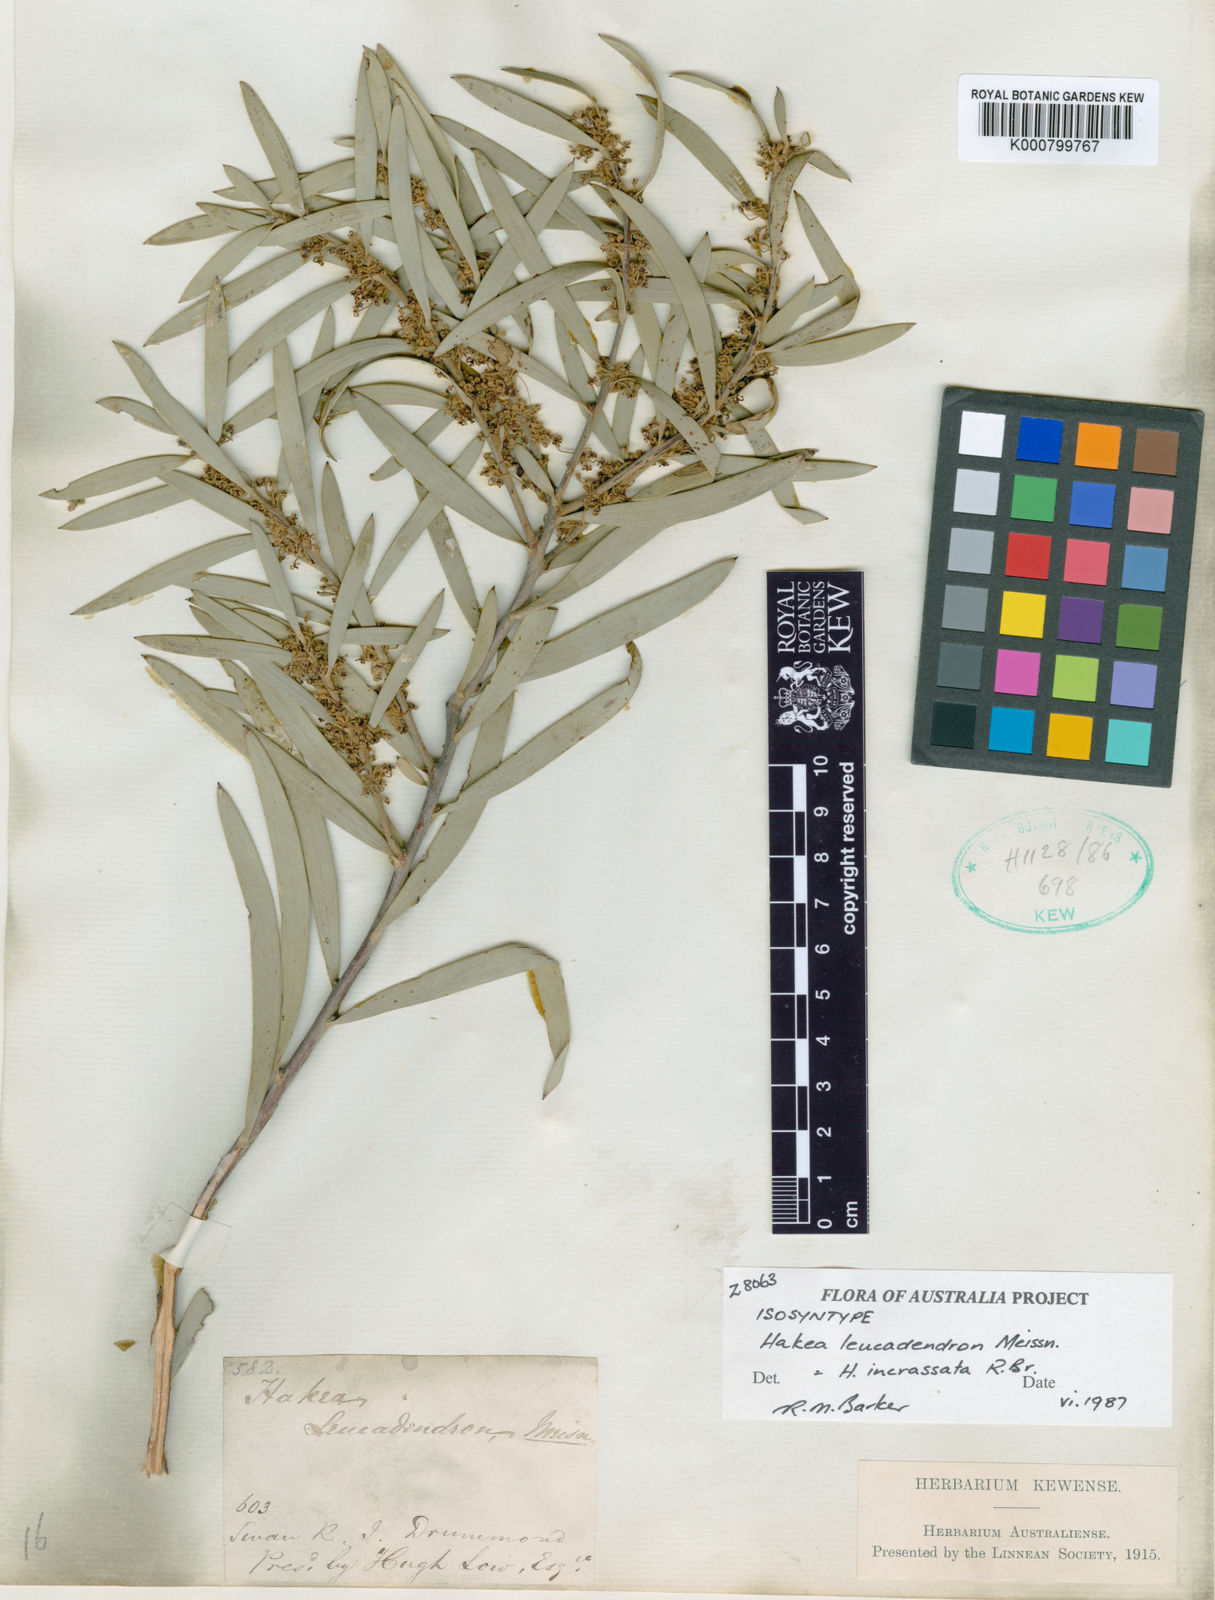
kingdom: Plantae
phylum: Tracheophyta
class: Magnoliopsida
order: Proteales
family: Proteaceae
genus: Hakea
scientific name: Hakea incrassata
